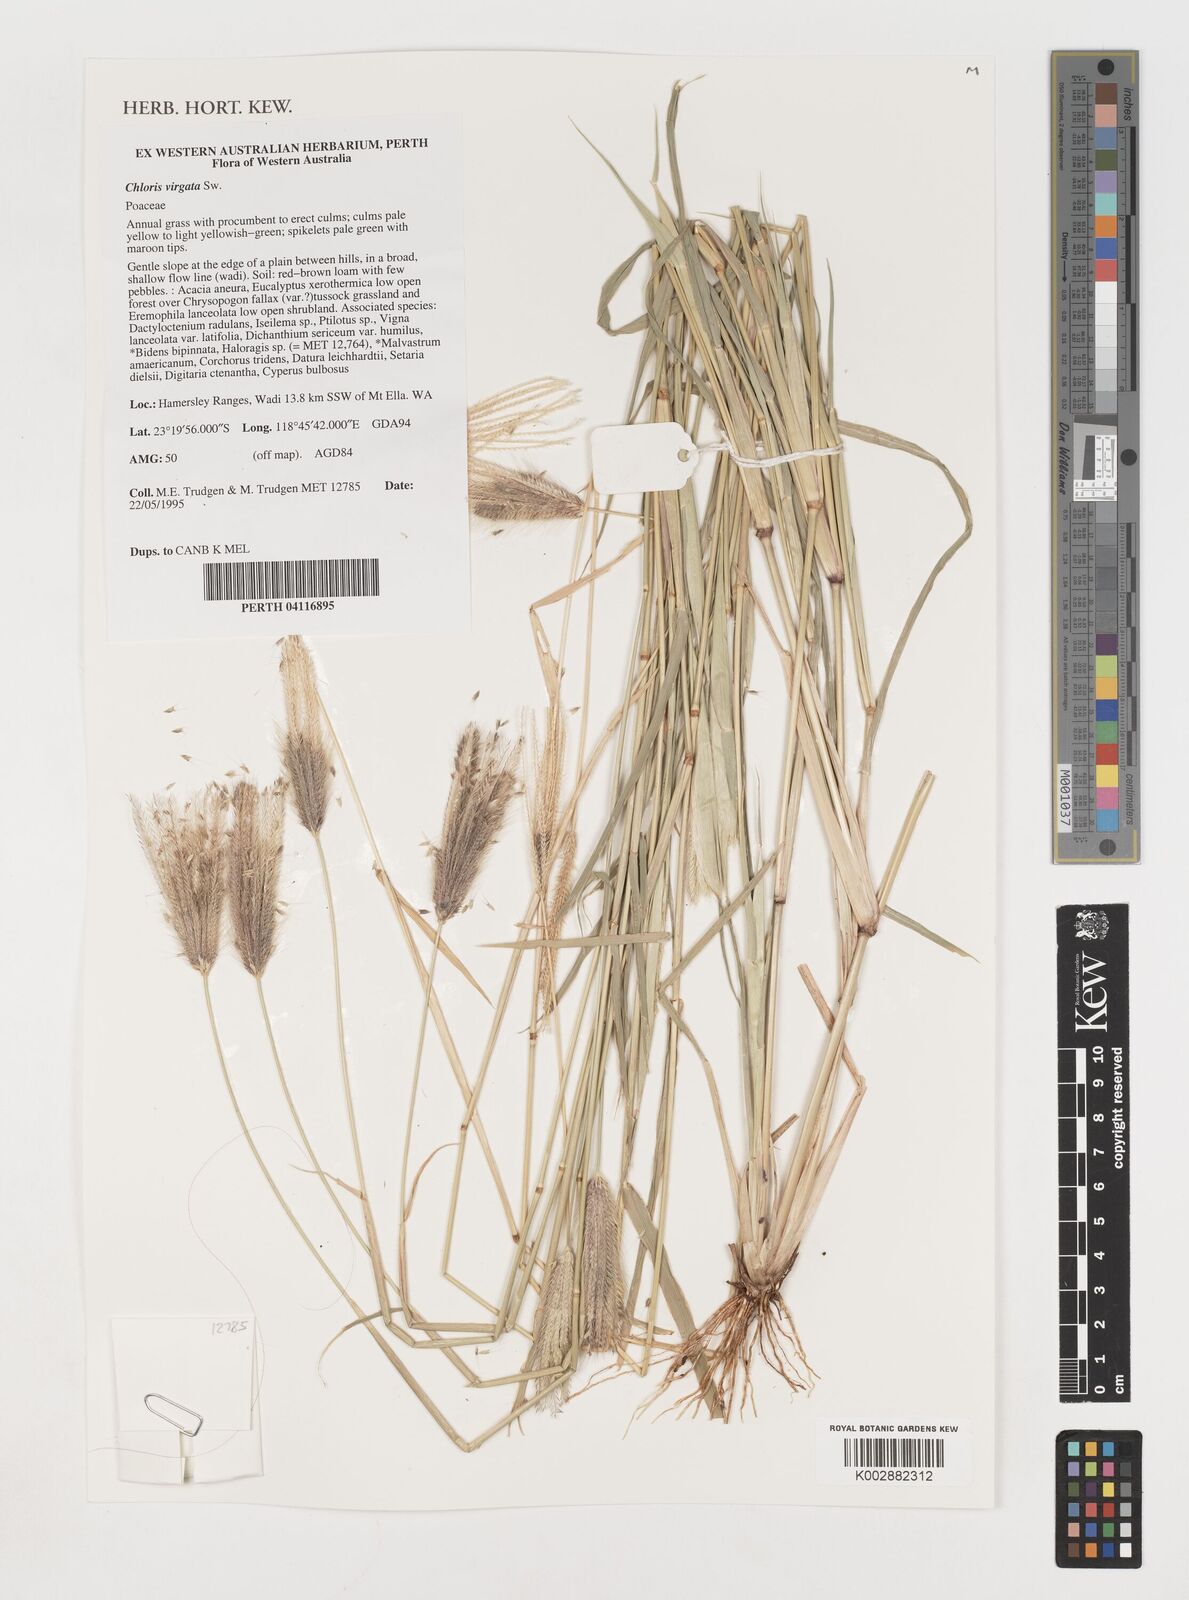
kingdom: Plantae
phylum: Tracheophyta
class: Liliopsida
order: Poales
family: Poaceae
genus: Chloris
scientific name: Chloris virgata
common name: Feathery rhodes-grass
